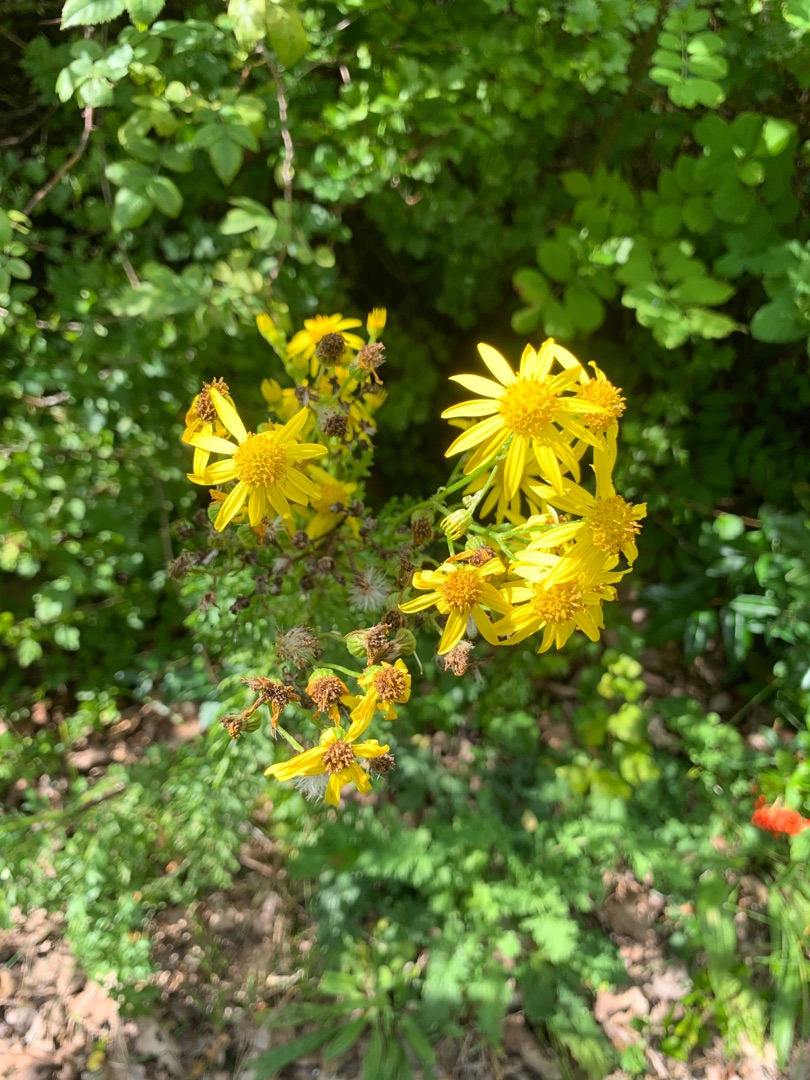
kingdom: Plantae
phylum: Tracheophyta
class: Magnoliopsida
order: Asterales
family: Asteraceae
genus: Jacobaea
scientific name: Jacobaea vulgaris
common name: Eng-brandbæger
